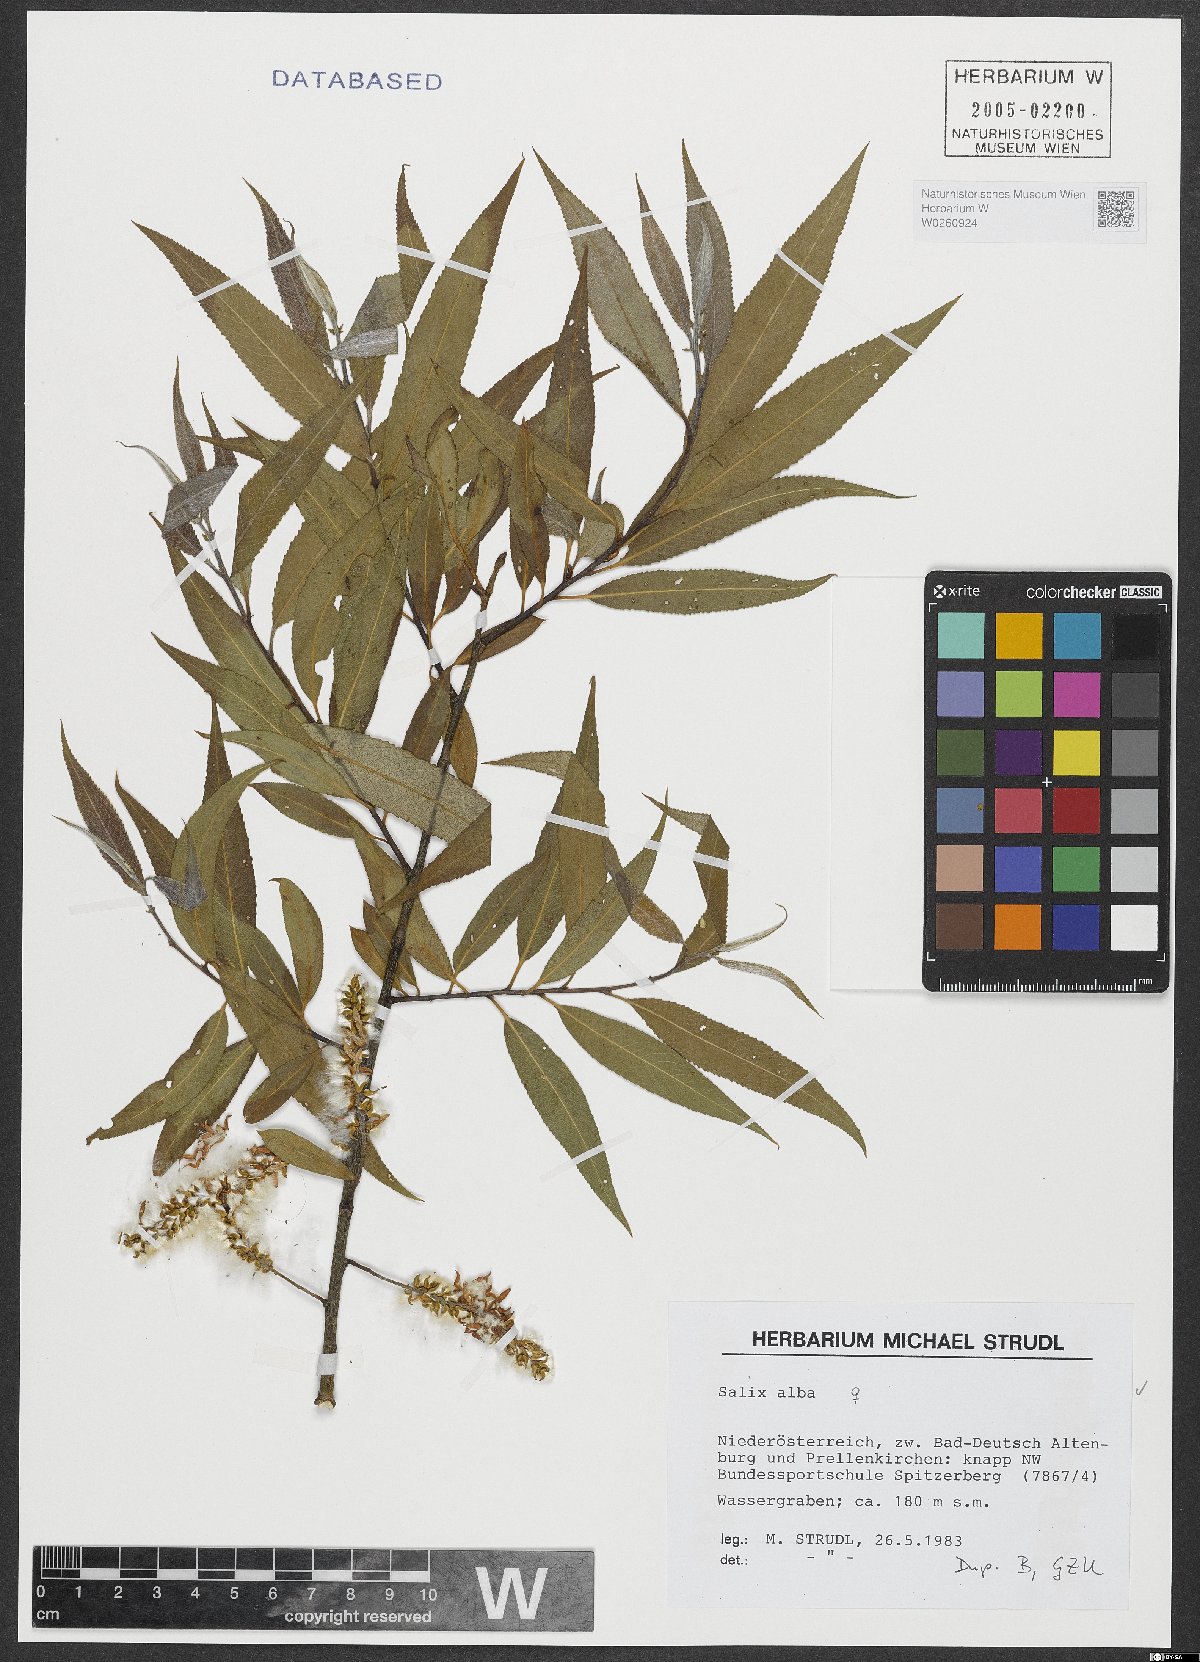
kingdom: Plantae
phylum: Tracheophyta
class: Magnoliopsida
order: Malpighiales
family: Salicaceae
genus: Salix
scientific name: Salix alba
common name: White willow
